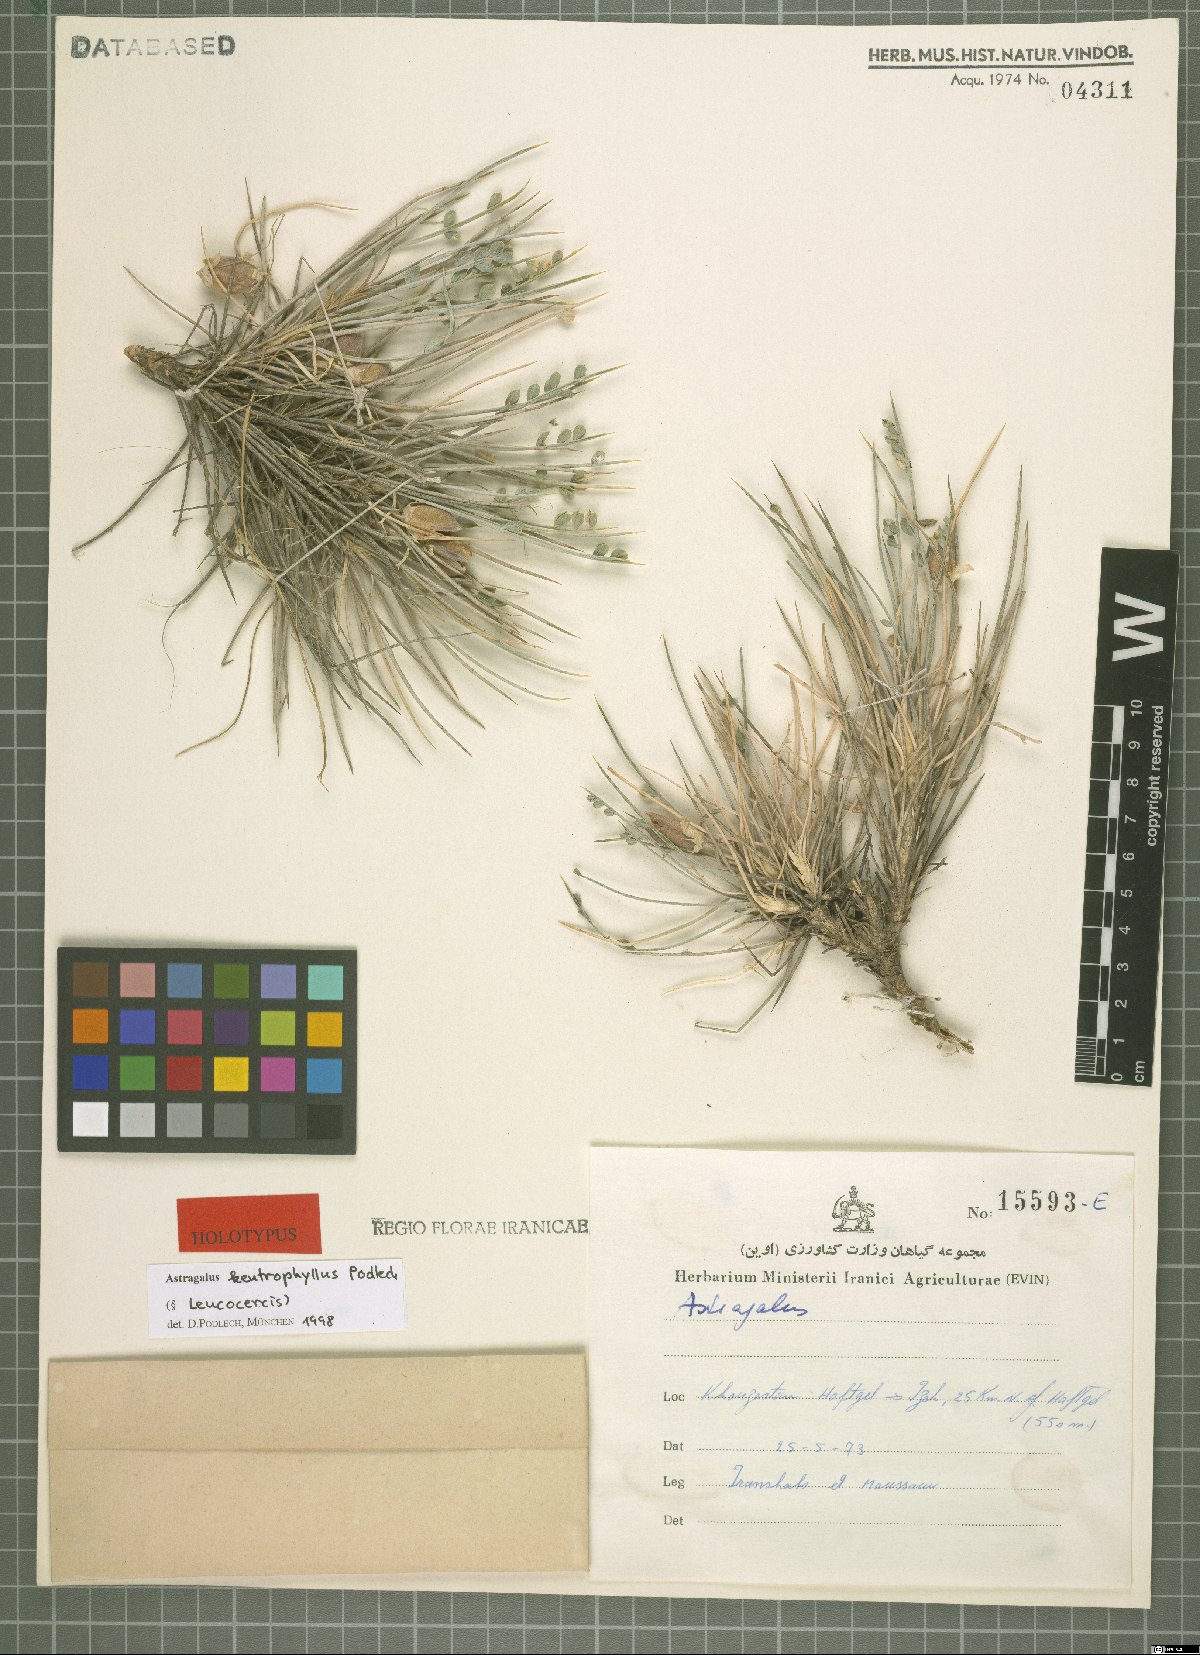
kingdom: Plantae
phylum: Tracheophyta
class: Magnoliopsida
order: Fabales
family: Fabaceae
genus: Astragalus
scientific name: Astragalus kentrophyllus
